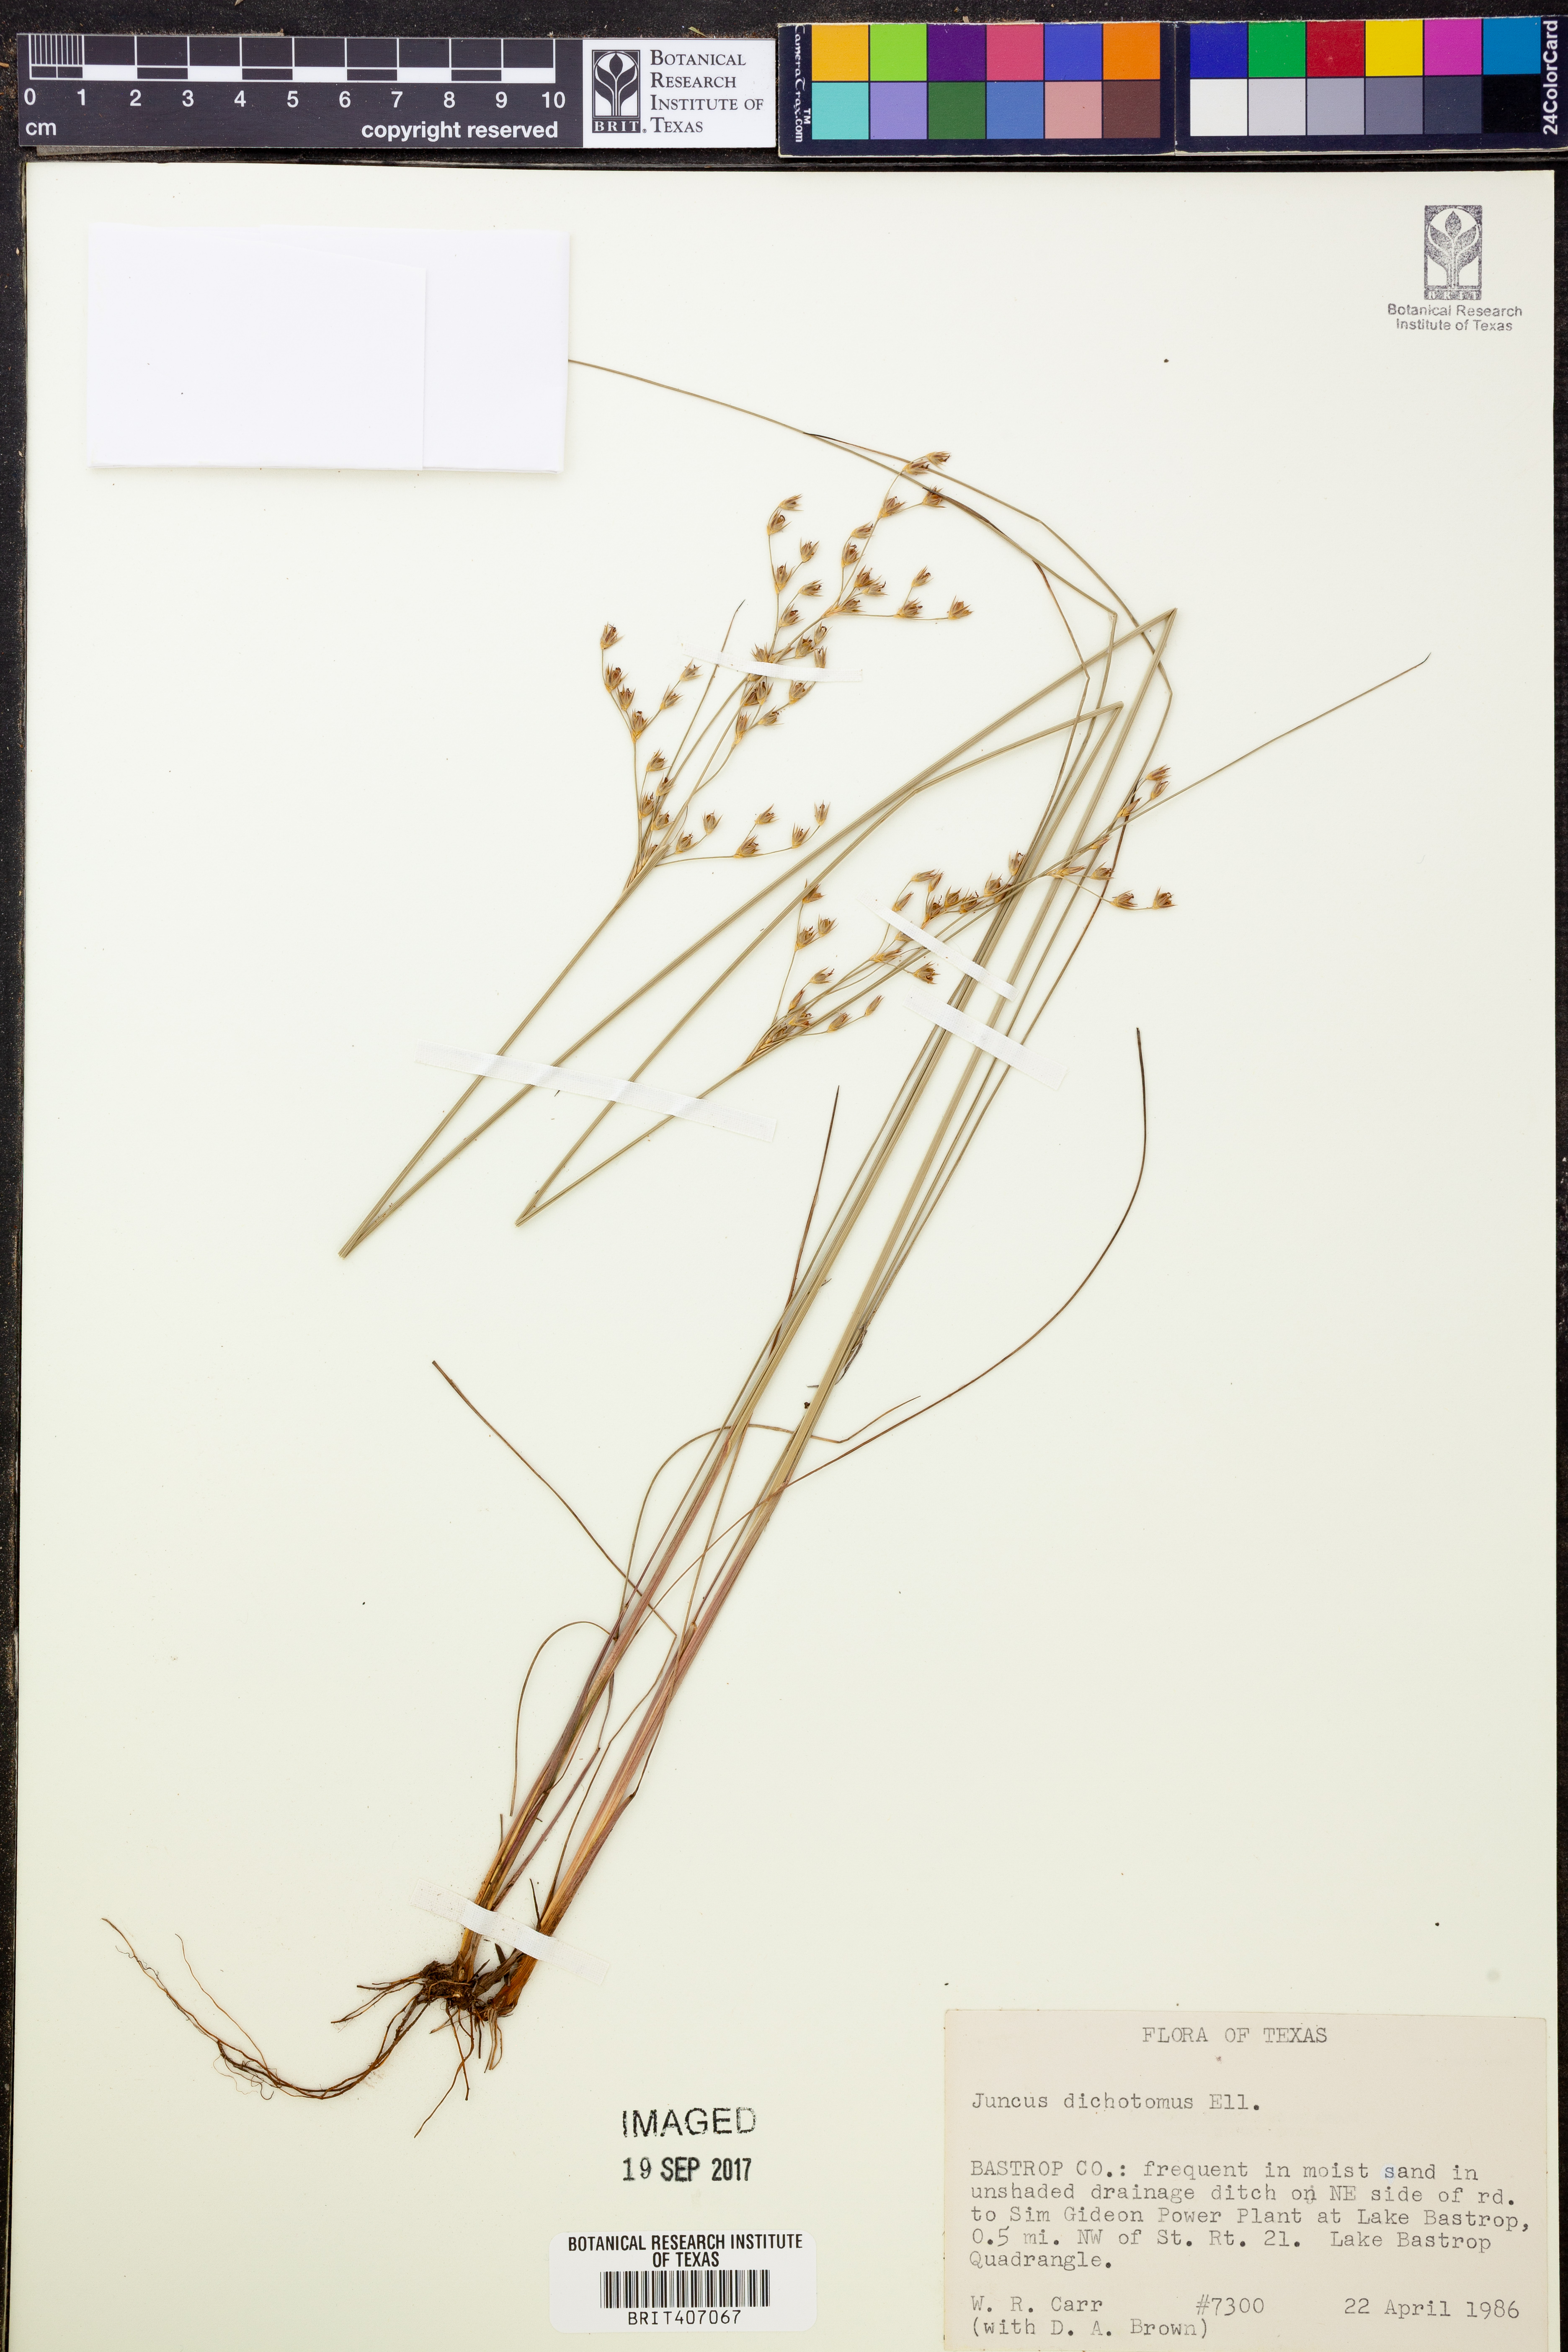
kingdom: Plantae
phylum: Tracheophyta
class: Liliopsida
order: Poales
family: Juncaceae
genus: Juncus
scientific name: Juncus dichotomus
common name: Forked rush
